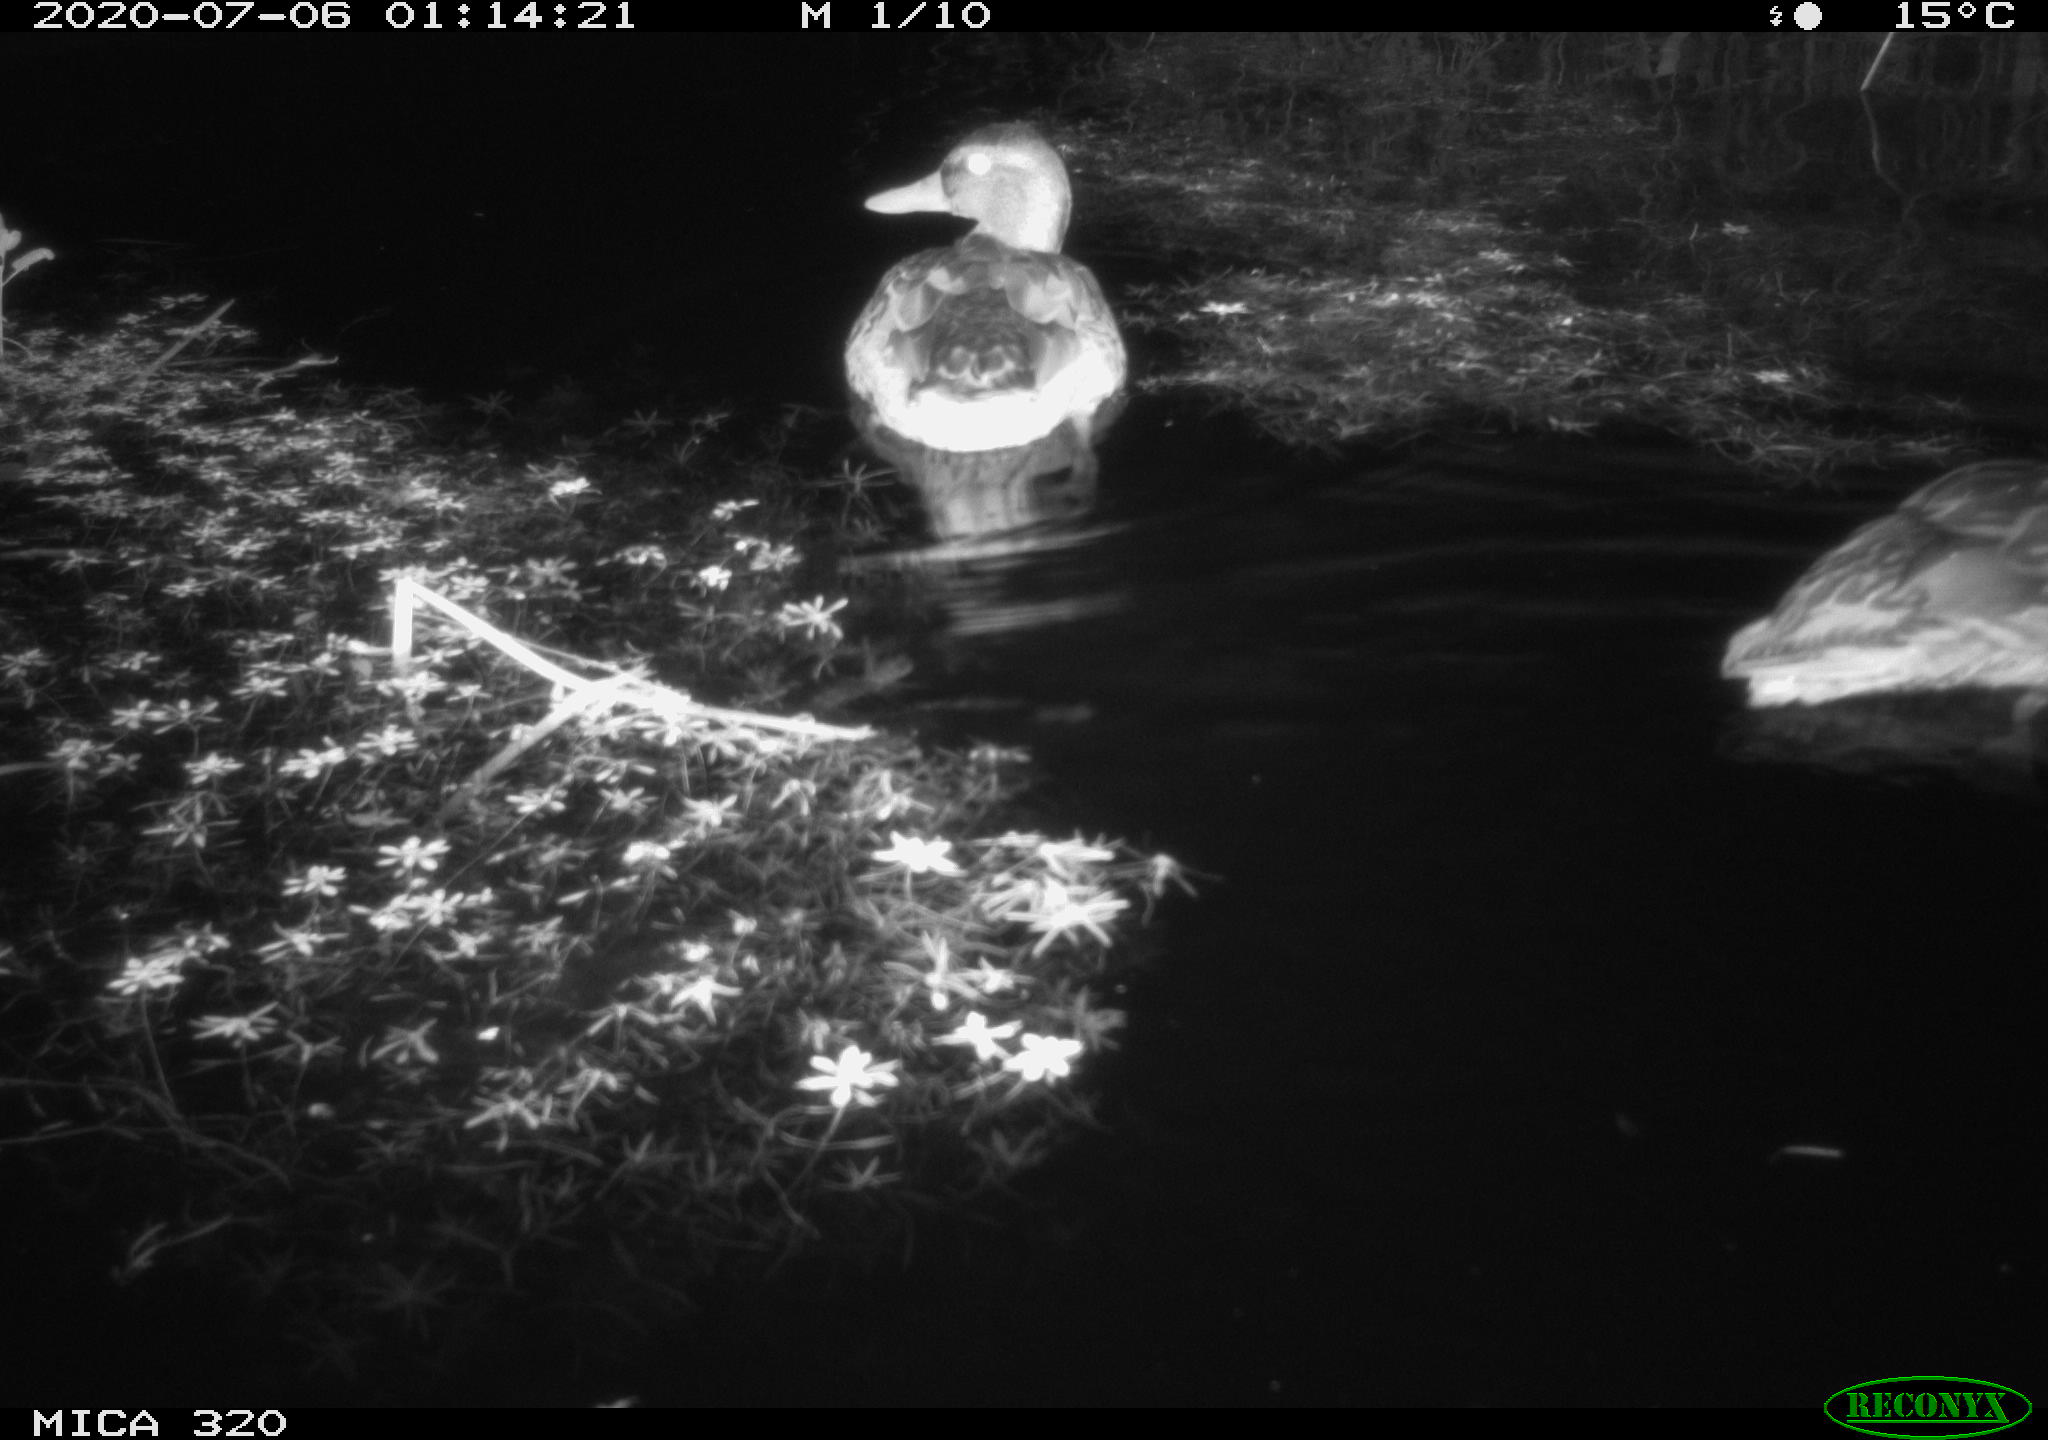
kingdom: Animalia
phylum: Chordata
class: Aves
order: Anseriformes
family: Anatidae
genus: Anas
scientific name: Anas platyrhynchos
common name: Mallard
